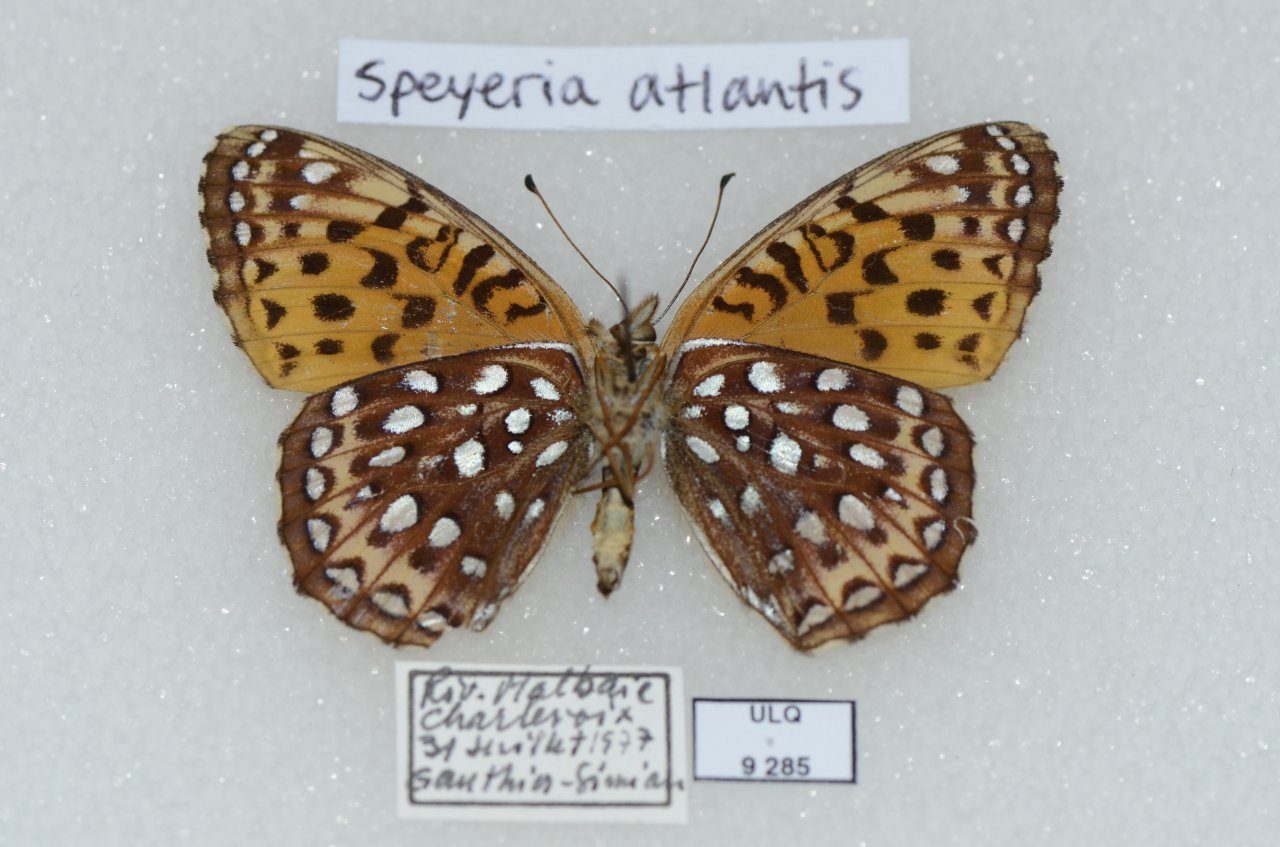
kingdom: Animalia
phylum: Arthropoda
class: Insecta
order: Lepidoptera
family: Nymphalidae
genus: Speyeria
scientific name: Speyeria atlantis
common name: Atlantis Fritillary
